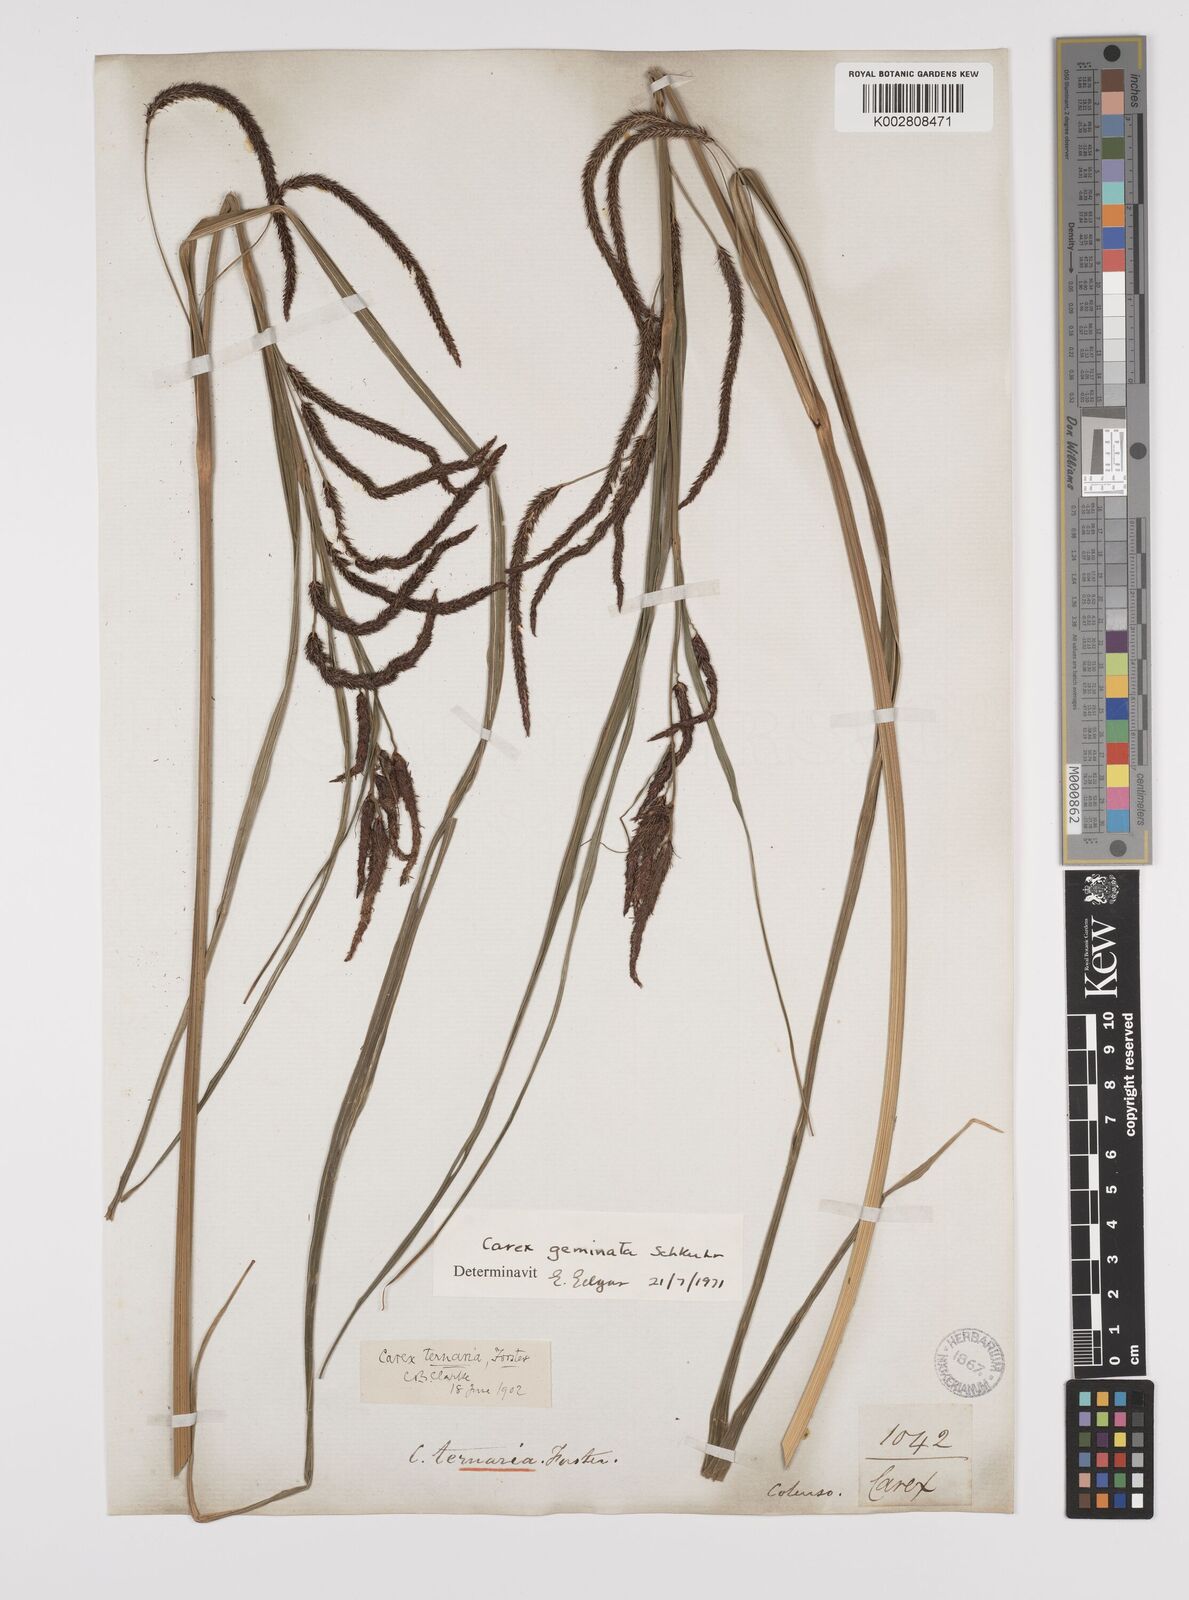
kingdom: Plantae
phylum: Tracheophyta
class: Liliopsida
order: Poales
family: Cyperaceae
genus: Carex
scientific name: Carex geminata
